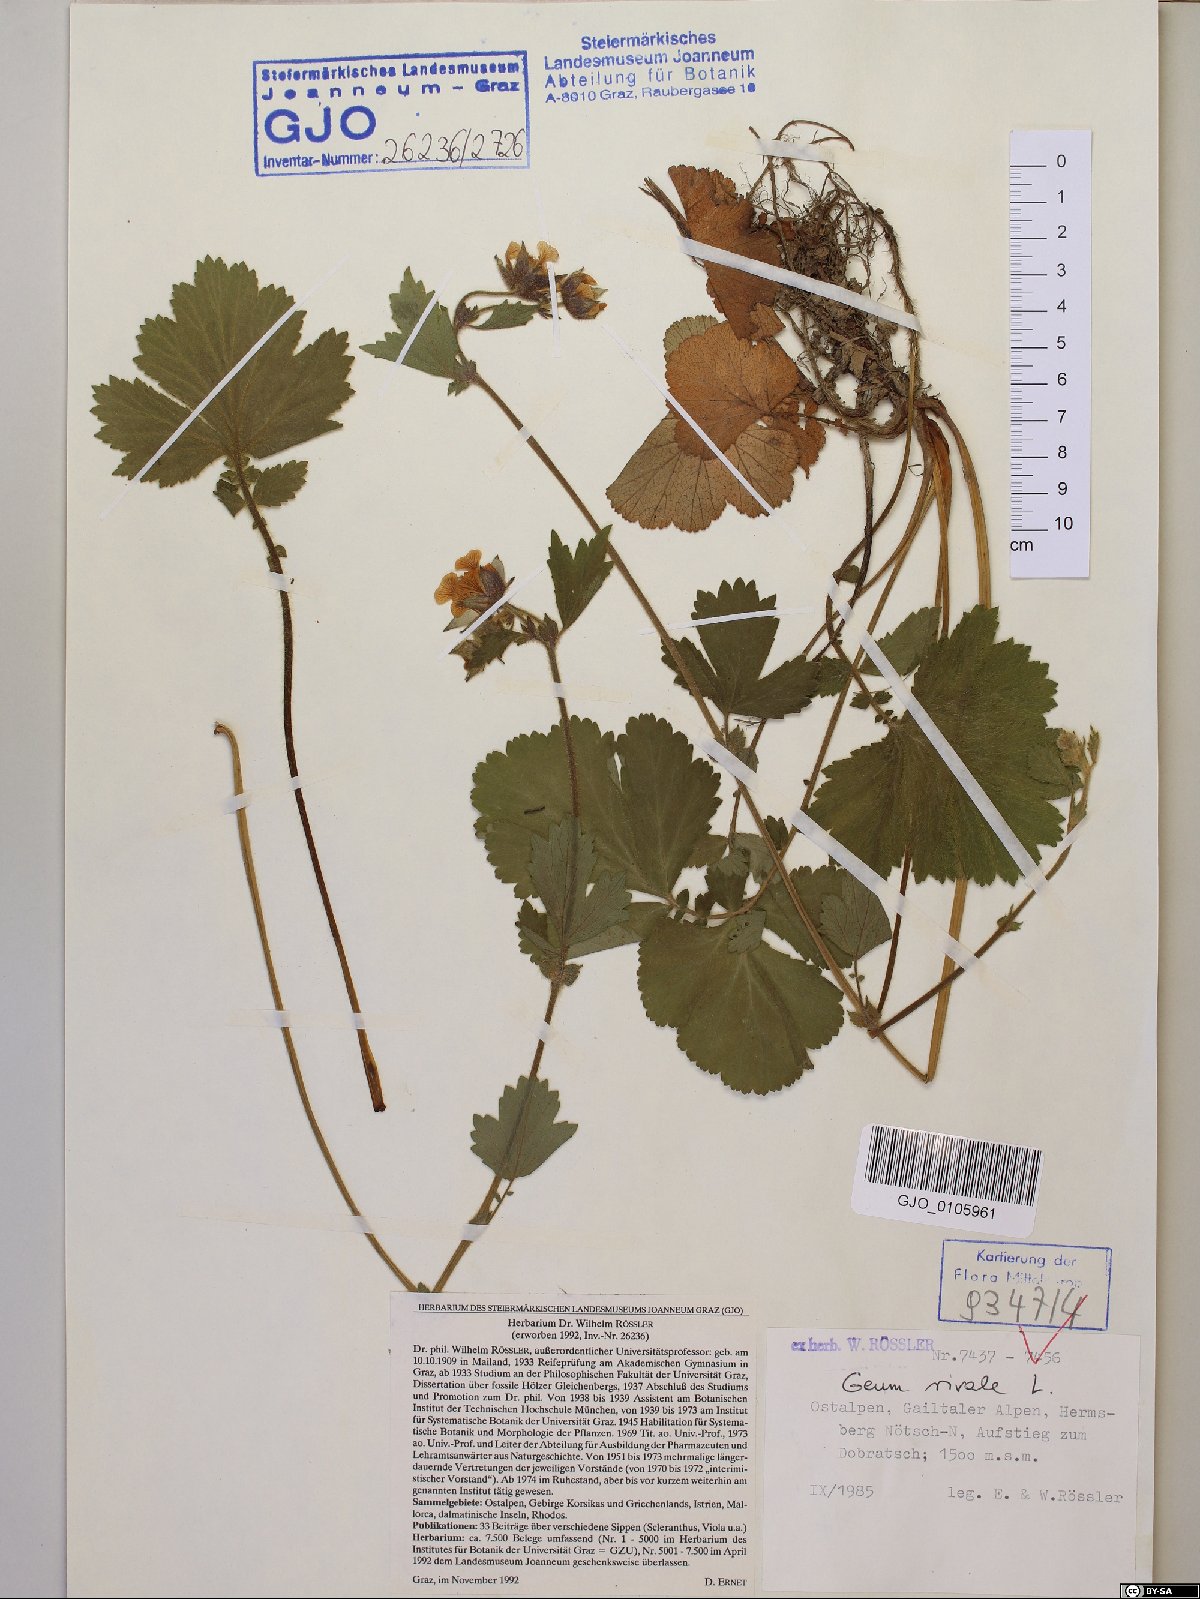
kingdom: Plantae
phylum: Tracheophyta
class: Magnoliopsida
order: Rosales
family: Rosaceae
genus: Geum
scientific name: Geum rivale
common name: Water avens
